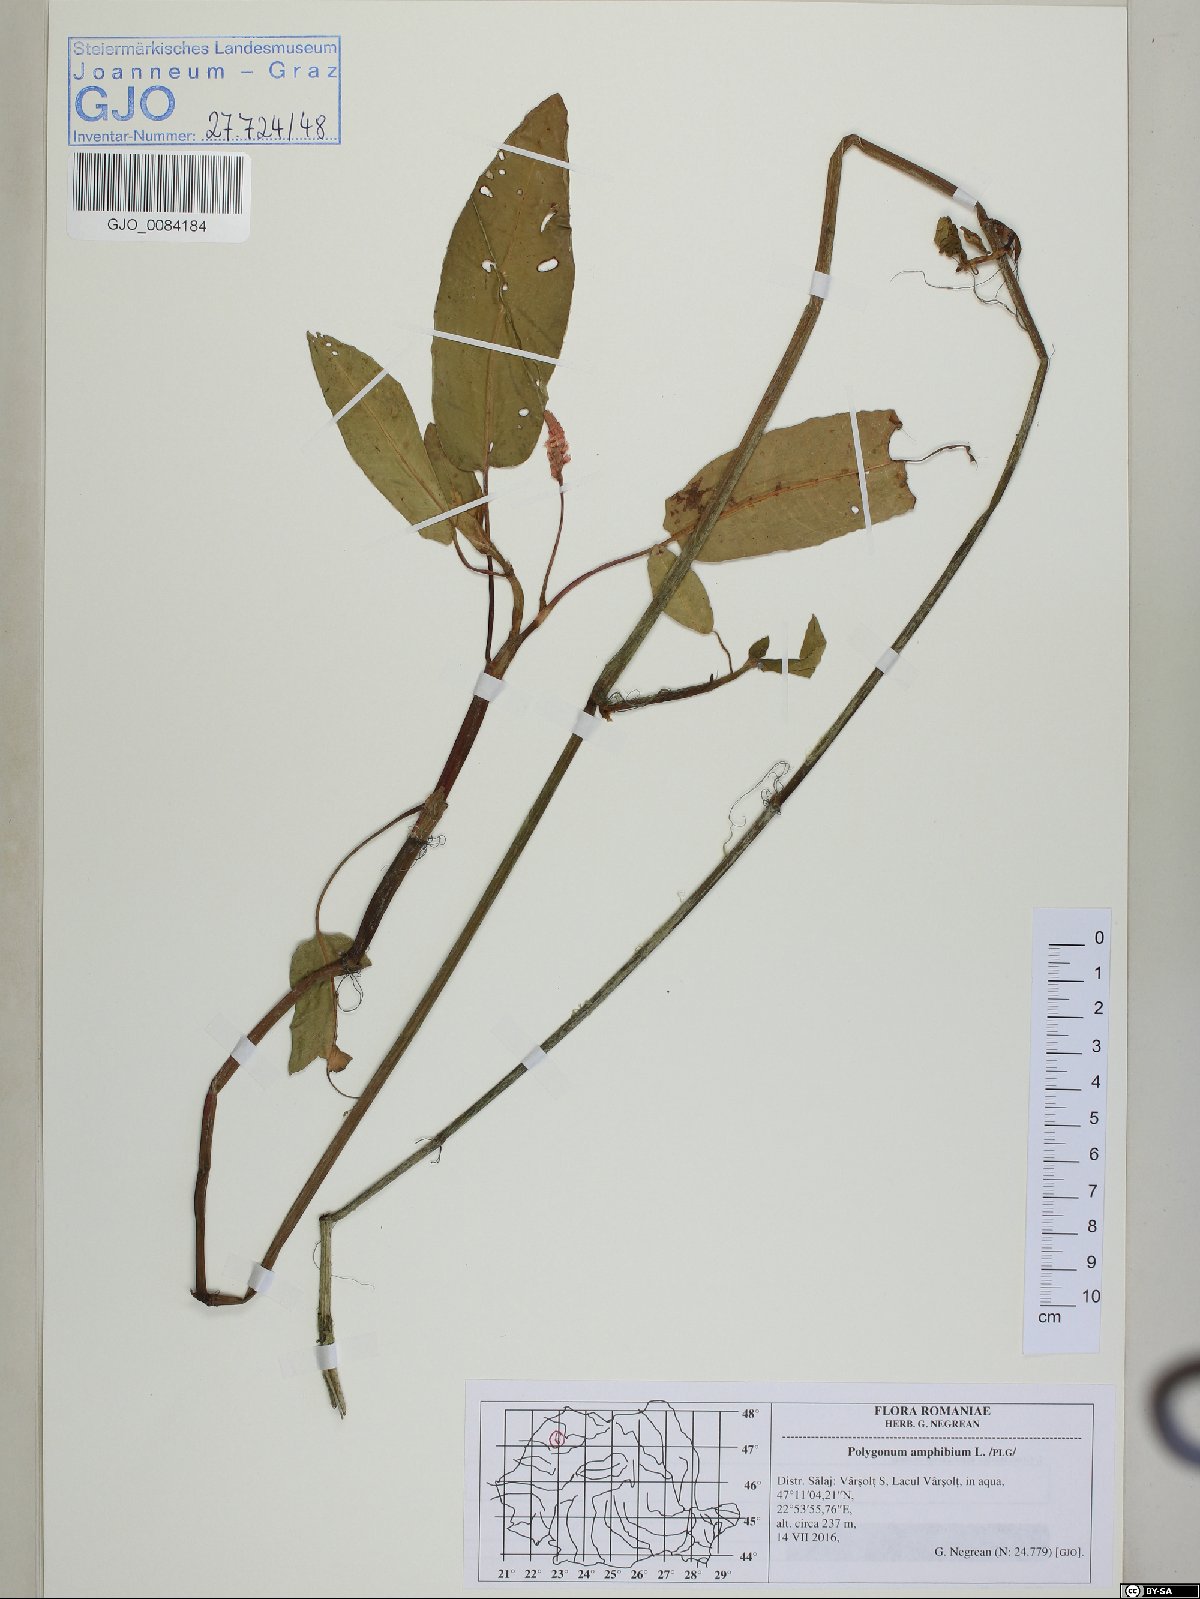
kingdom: Plantae
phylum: Tracheophyta
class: Magnoliopsida
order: Caryophyllales
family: Polygonaceae
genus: Persicaria
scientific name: Persicaria amphibia
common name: Amphibious bistort
